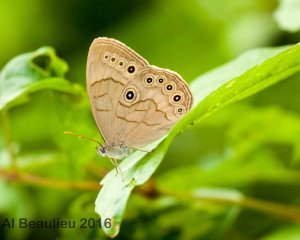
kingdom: Animalia
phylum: Arthropoda
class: Insecta
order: Lepidoptera
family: Nymphalidae
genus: Lethe
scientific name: Lethe eurydice
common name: Eyed Brown
